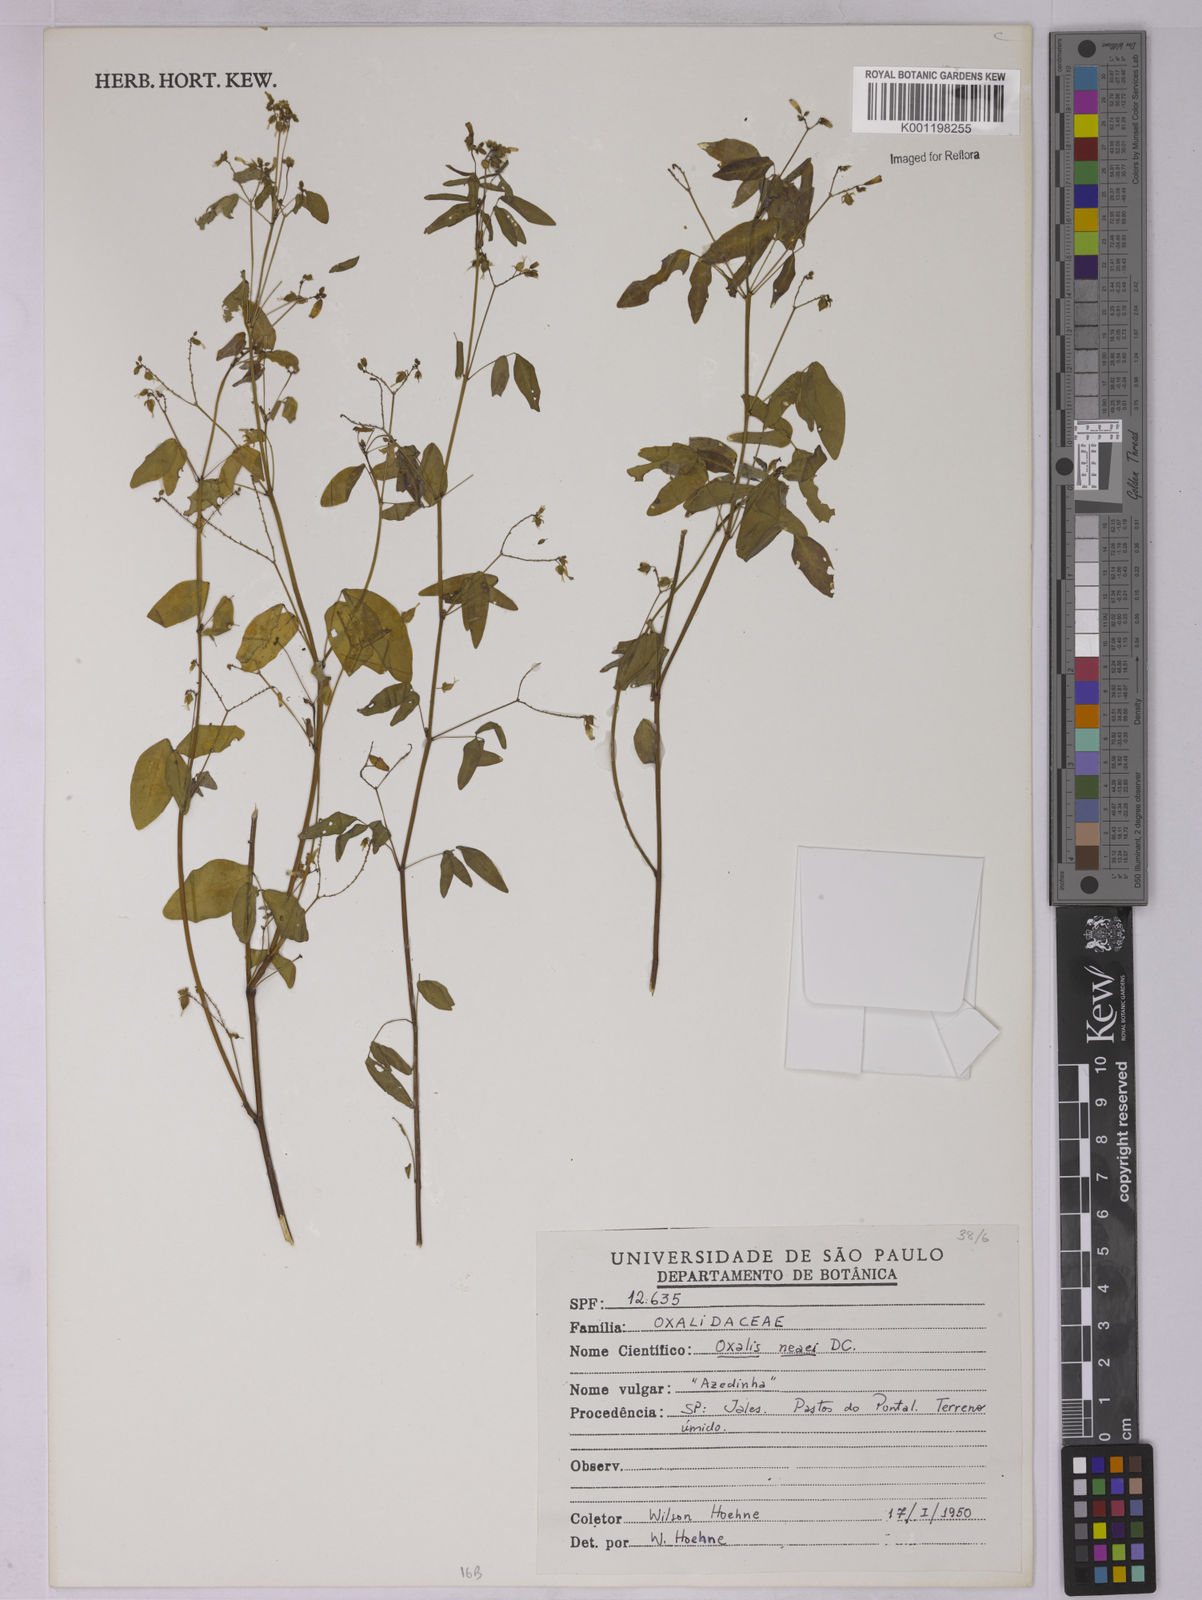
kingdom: Plantae
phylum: Tracheophyta
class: Magnoliopsida
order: Oxalidales
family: Oxalidaceae
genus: Oxalis
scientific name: Oxalis frutescens
